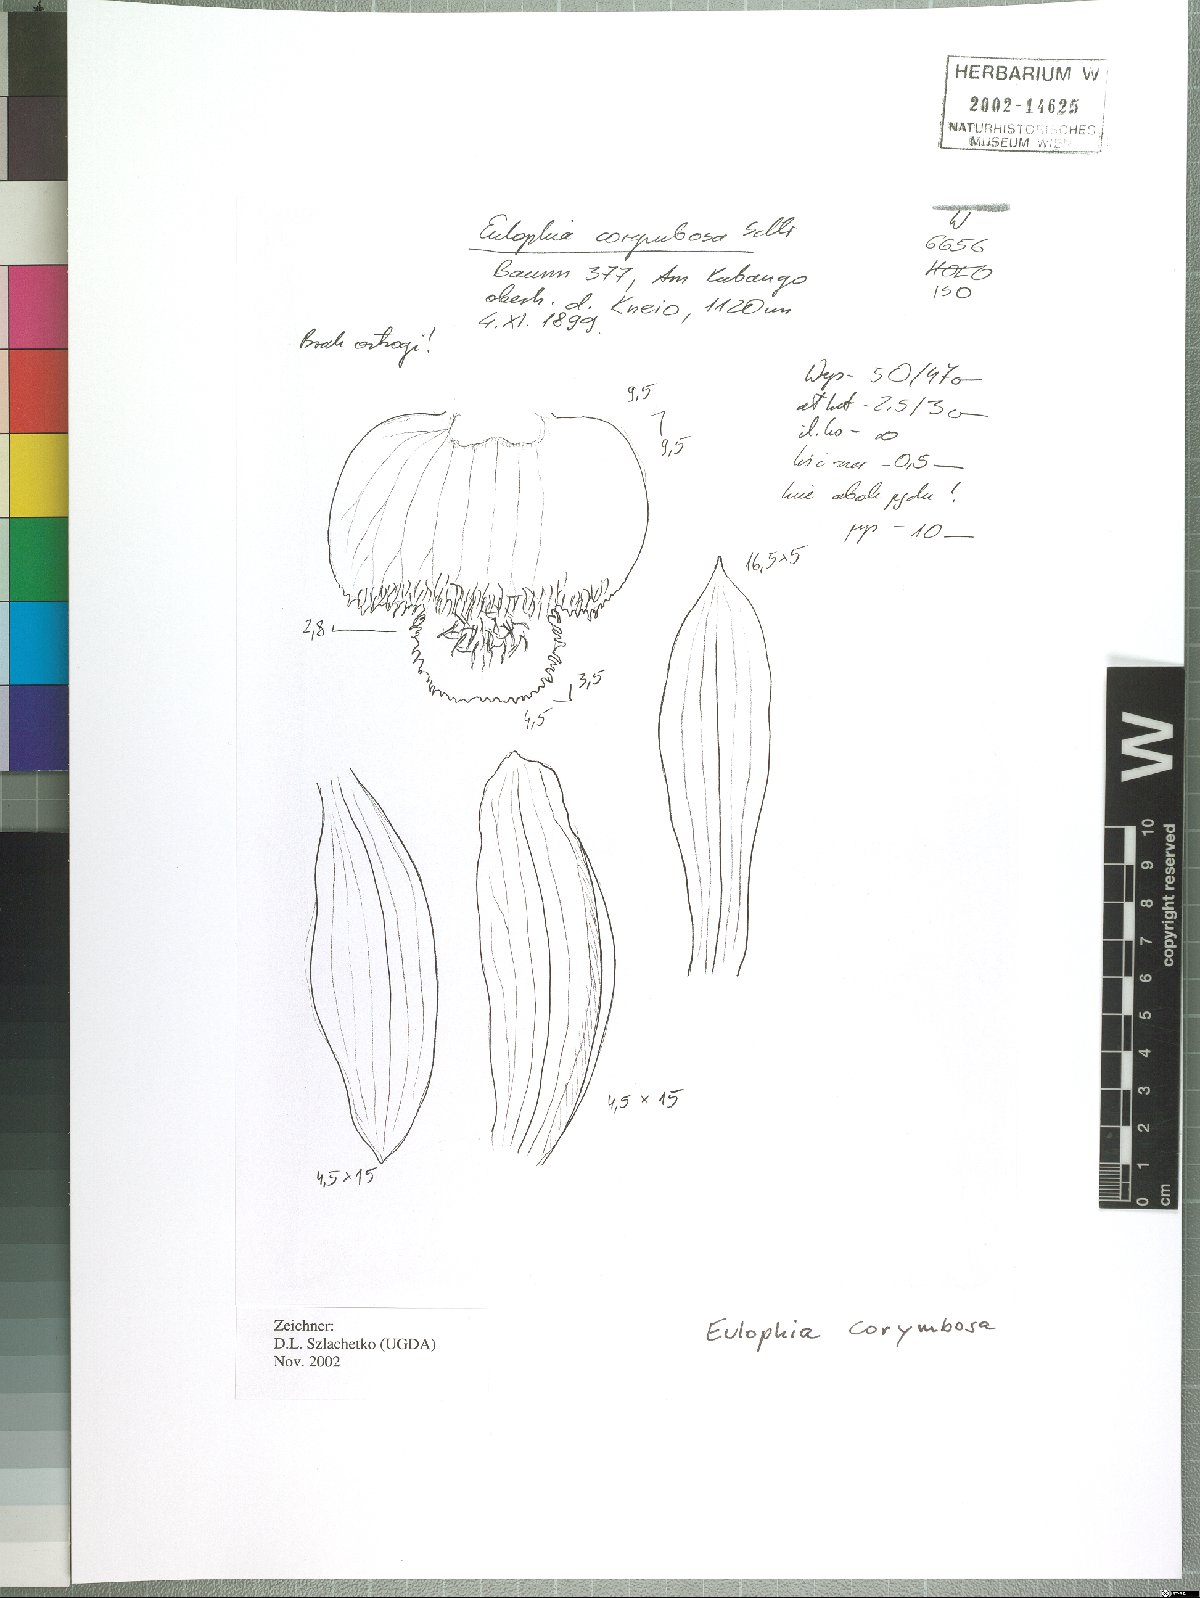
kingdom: Plantae
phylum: Tracheophyta
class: Liliopsida
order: Asparagales
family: Orchidaceae
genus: Eulophia
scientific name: Eulophia corymbosa
